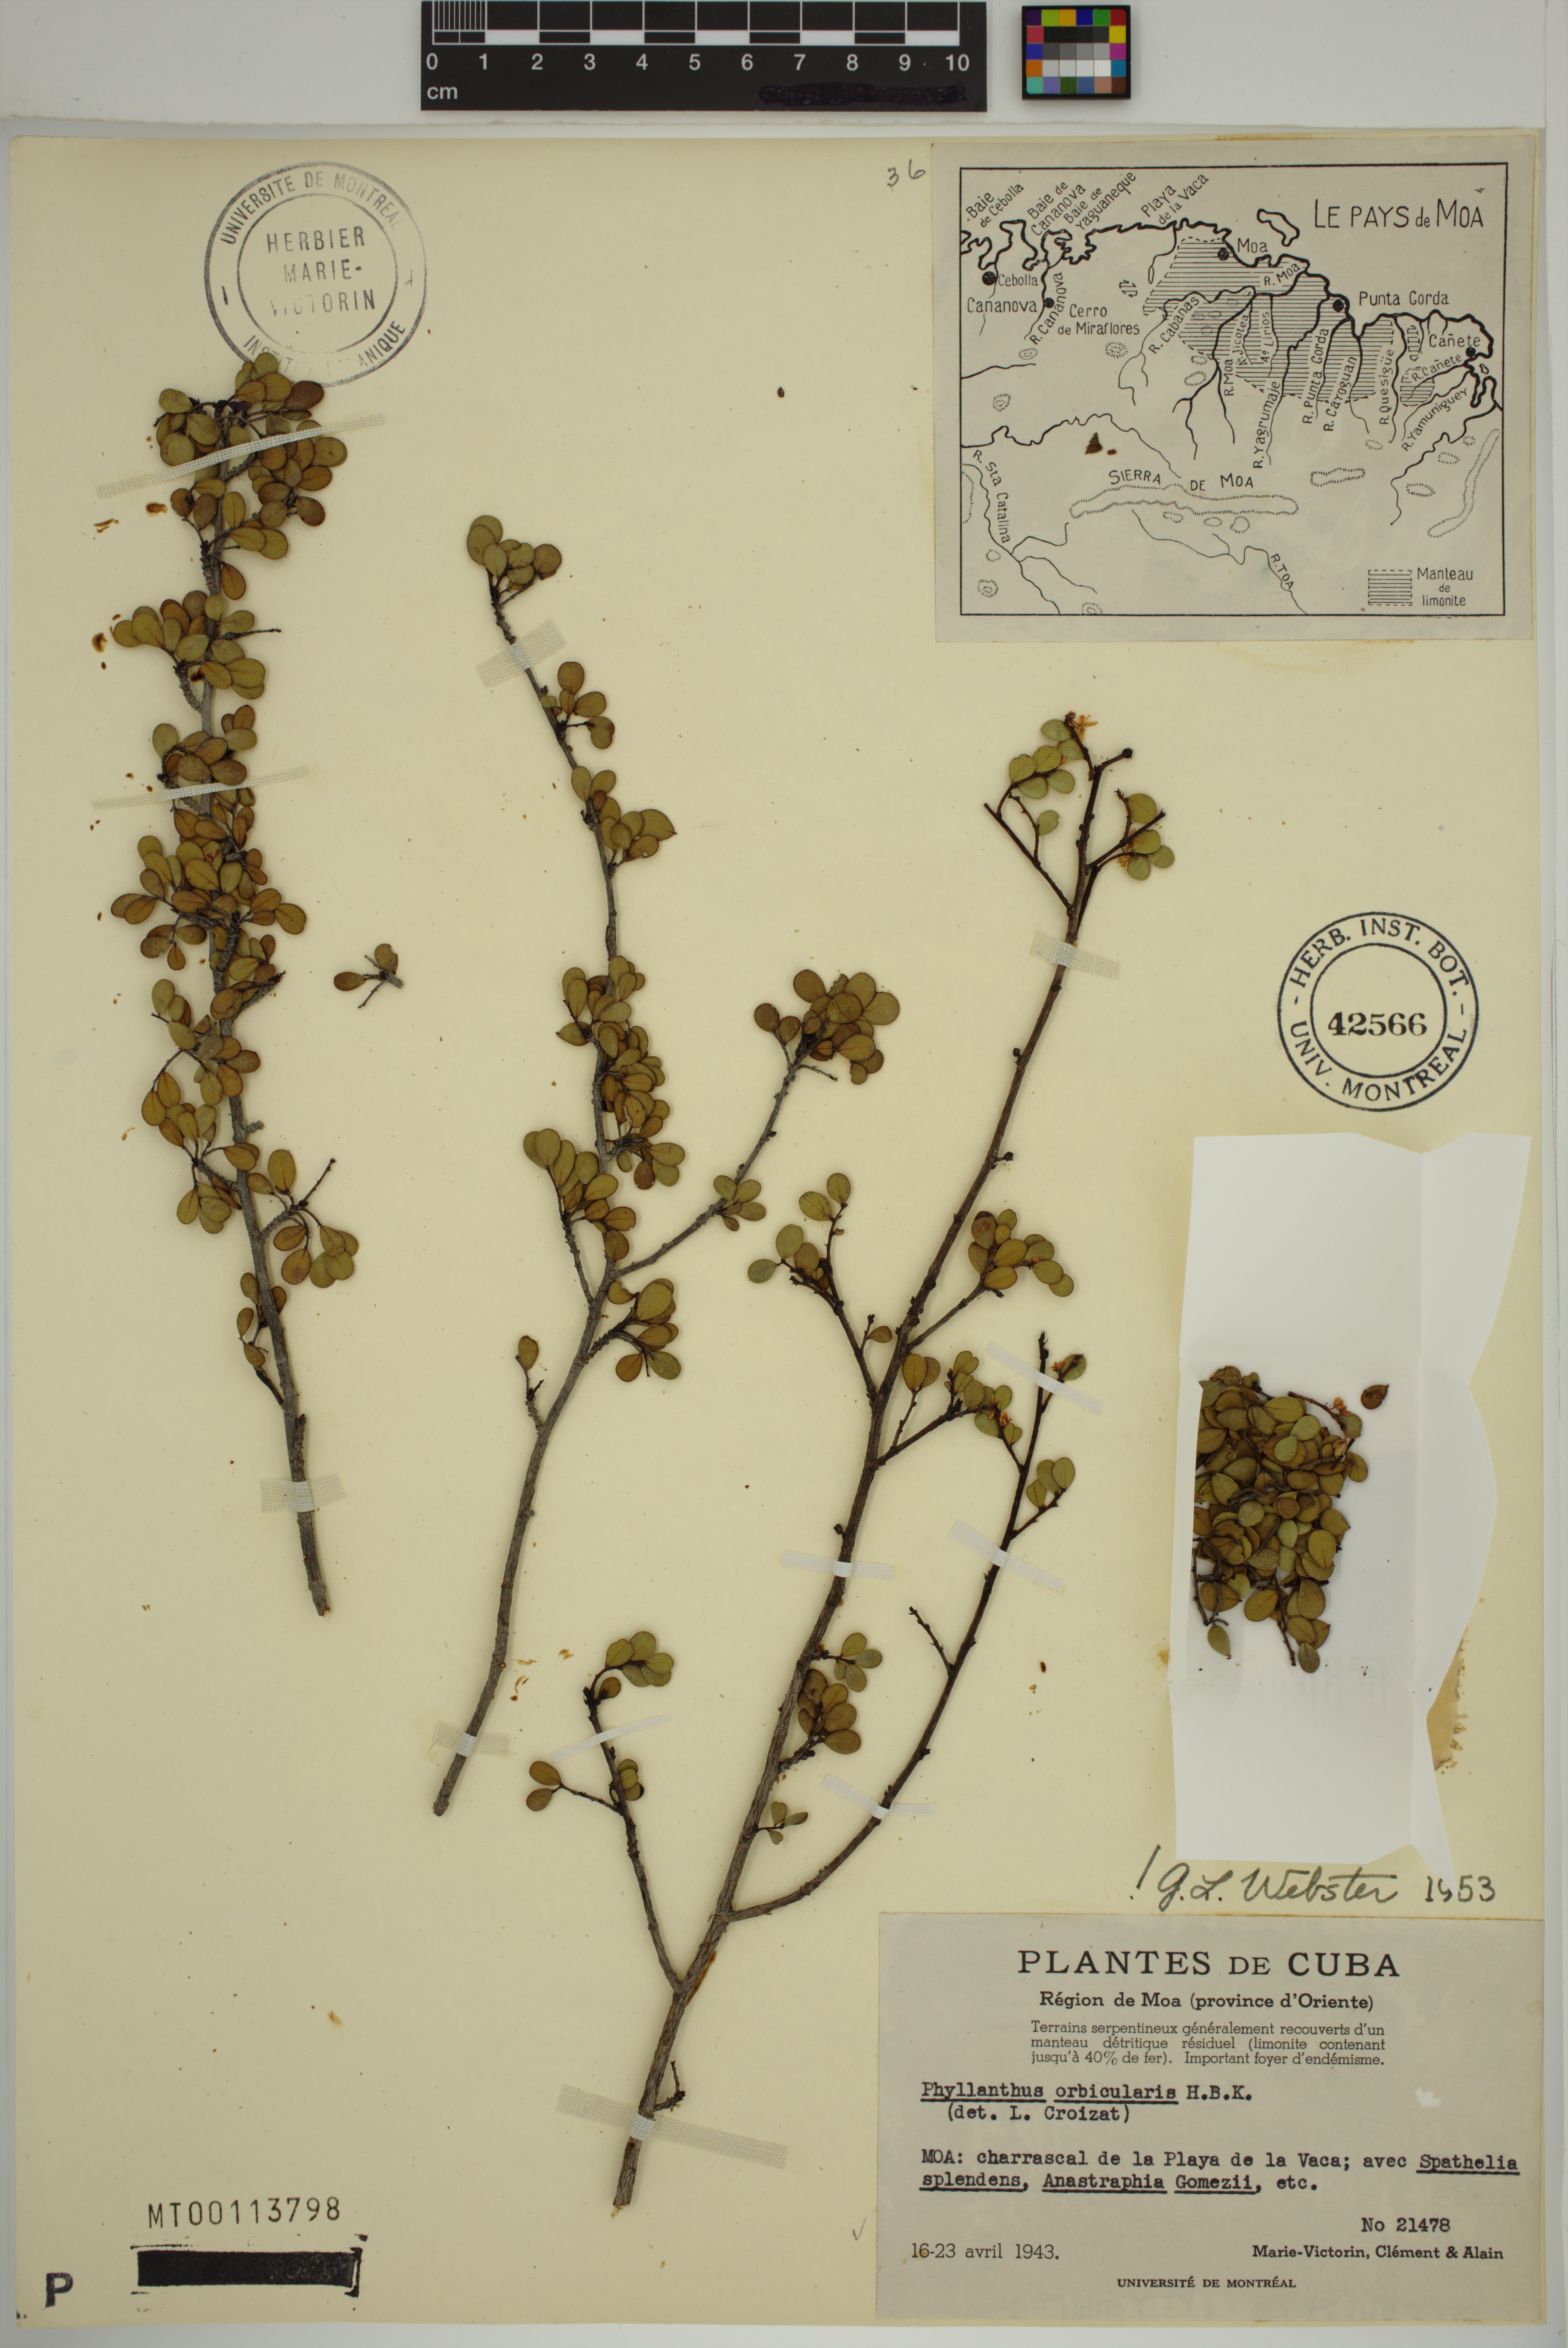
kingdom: Plantae
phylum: Tracheophyta
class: Magnoliopsida
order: Malpighiales
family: Phyllanthaceae
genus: Phyllanthus
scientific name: Phyllanthus orbicularis
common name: Wedge leaf-flower
